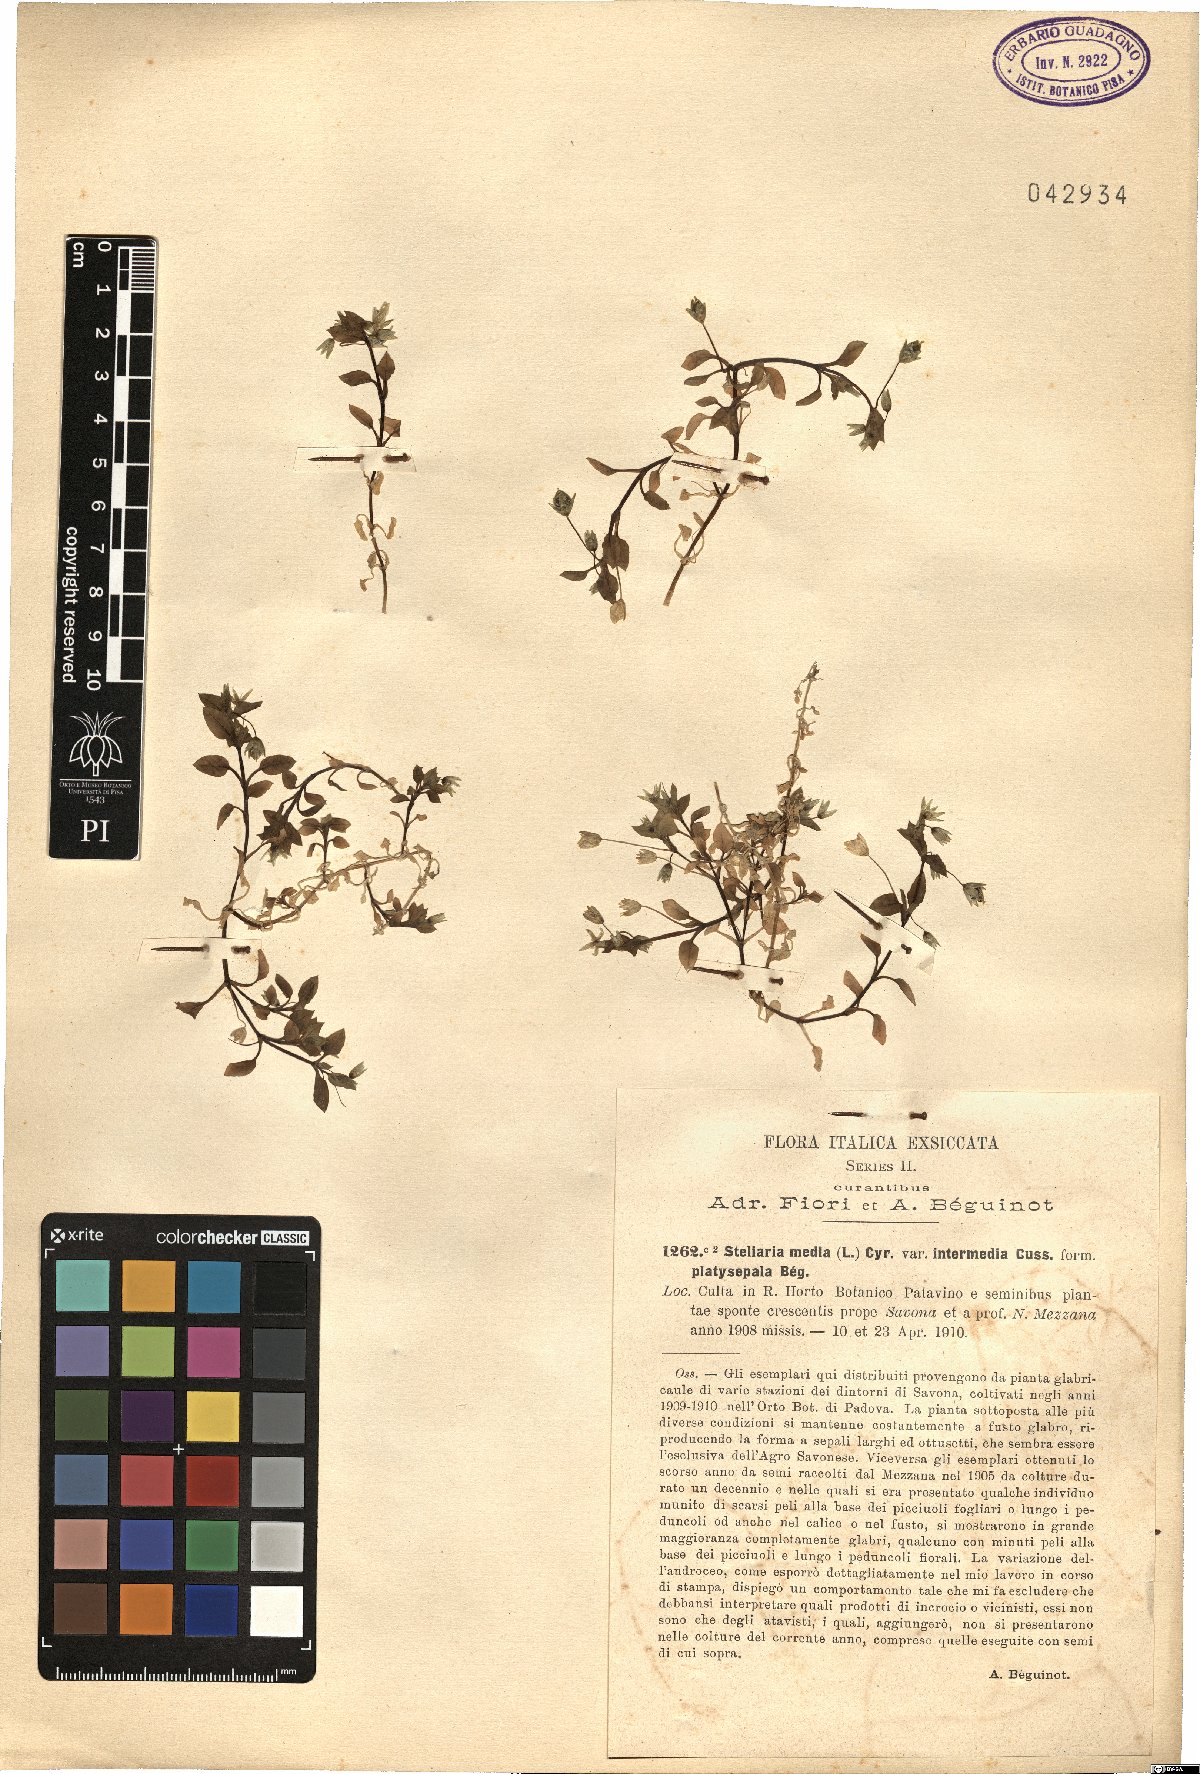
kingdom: Plantae
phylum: Tracheophyta
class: Magnoliopsida
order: Caryophyllales
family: Caryophyllaceae
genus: Stellaria
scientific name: Stellaria media
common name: Common chickweed
